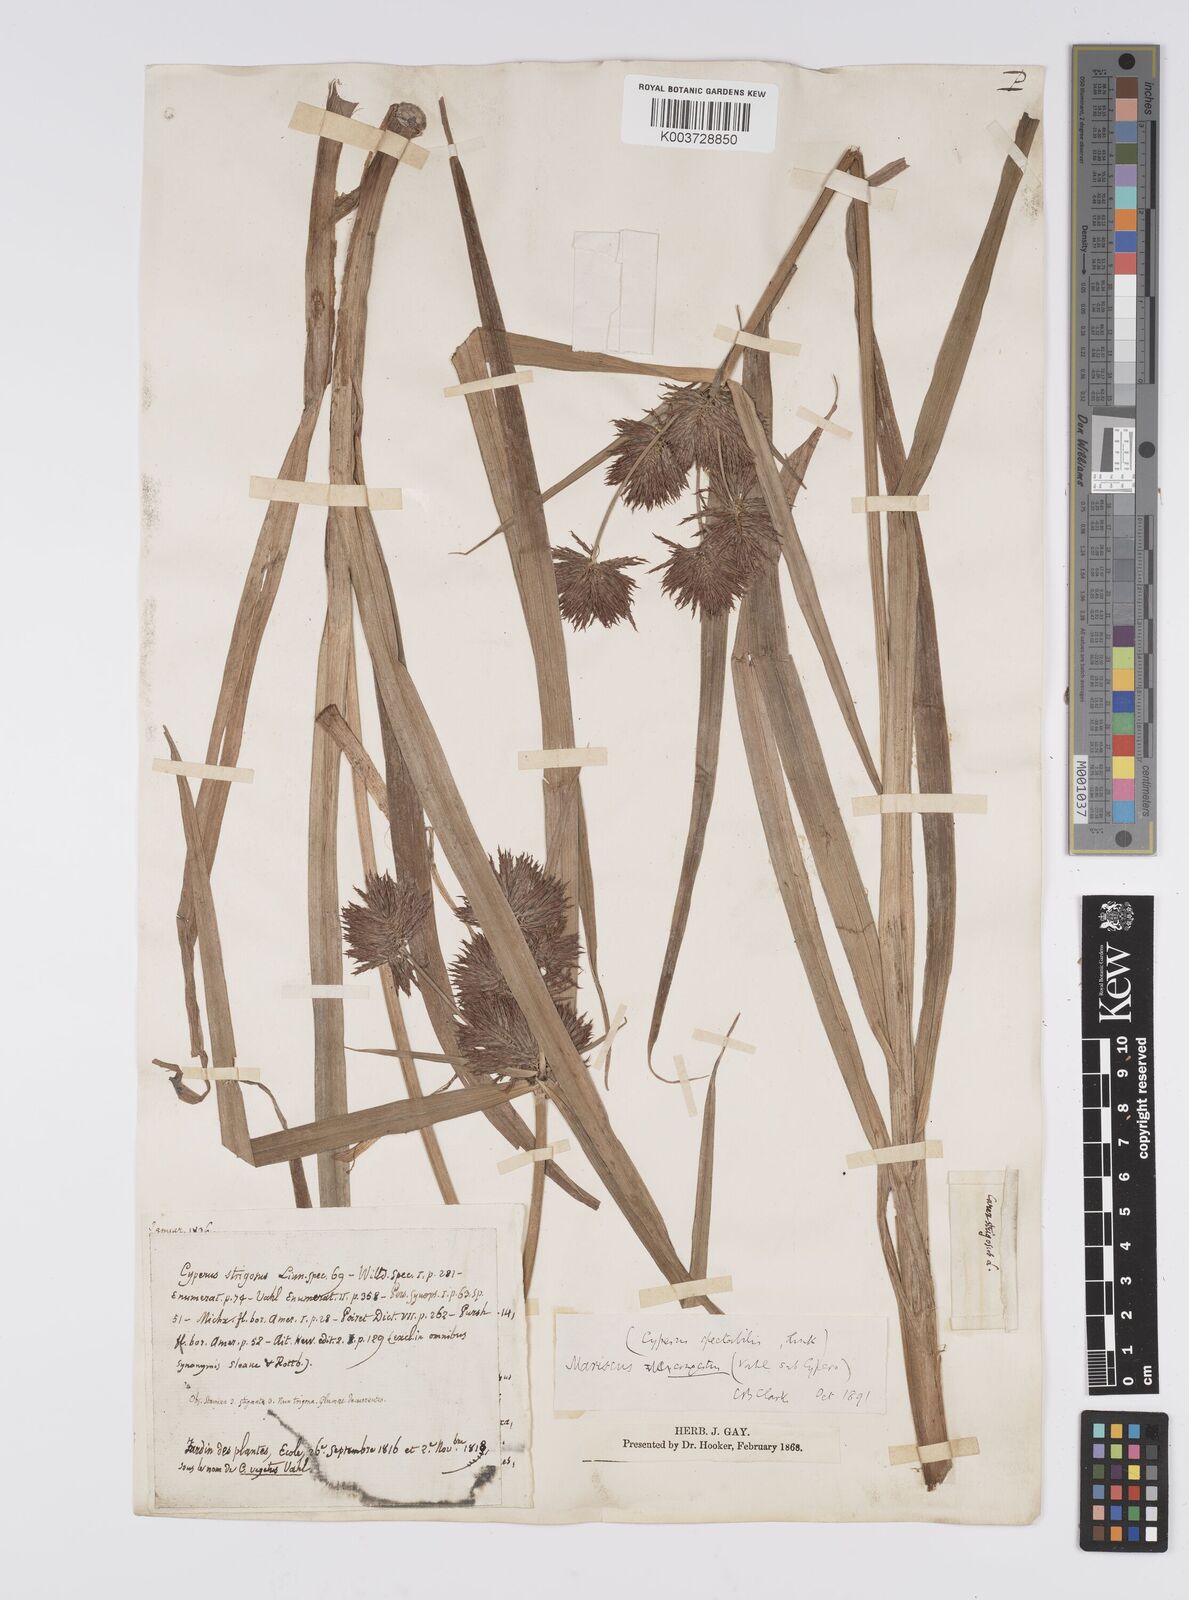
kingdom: Plantae
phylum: Tracheophyta
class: Liliopsida
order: Poales
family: Cyperaceae
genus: Cyperus
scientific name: Cyperus congestus
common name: Dense flat sedge
